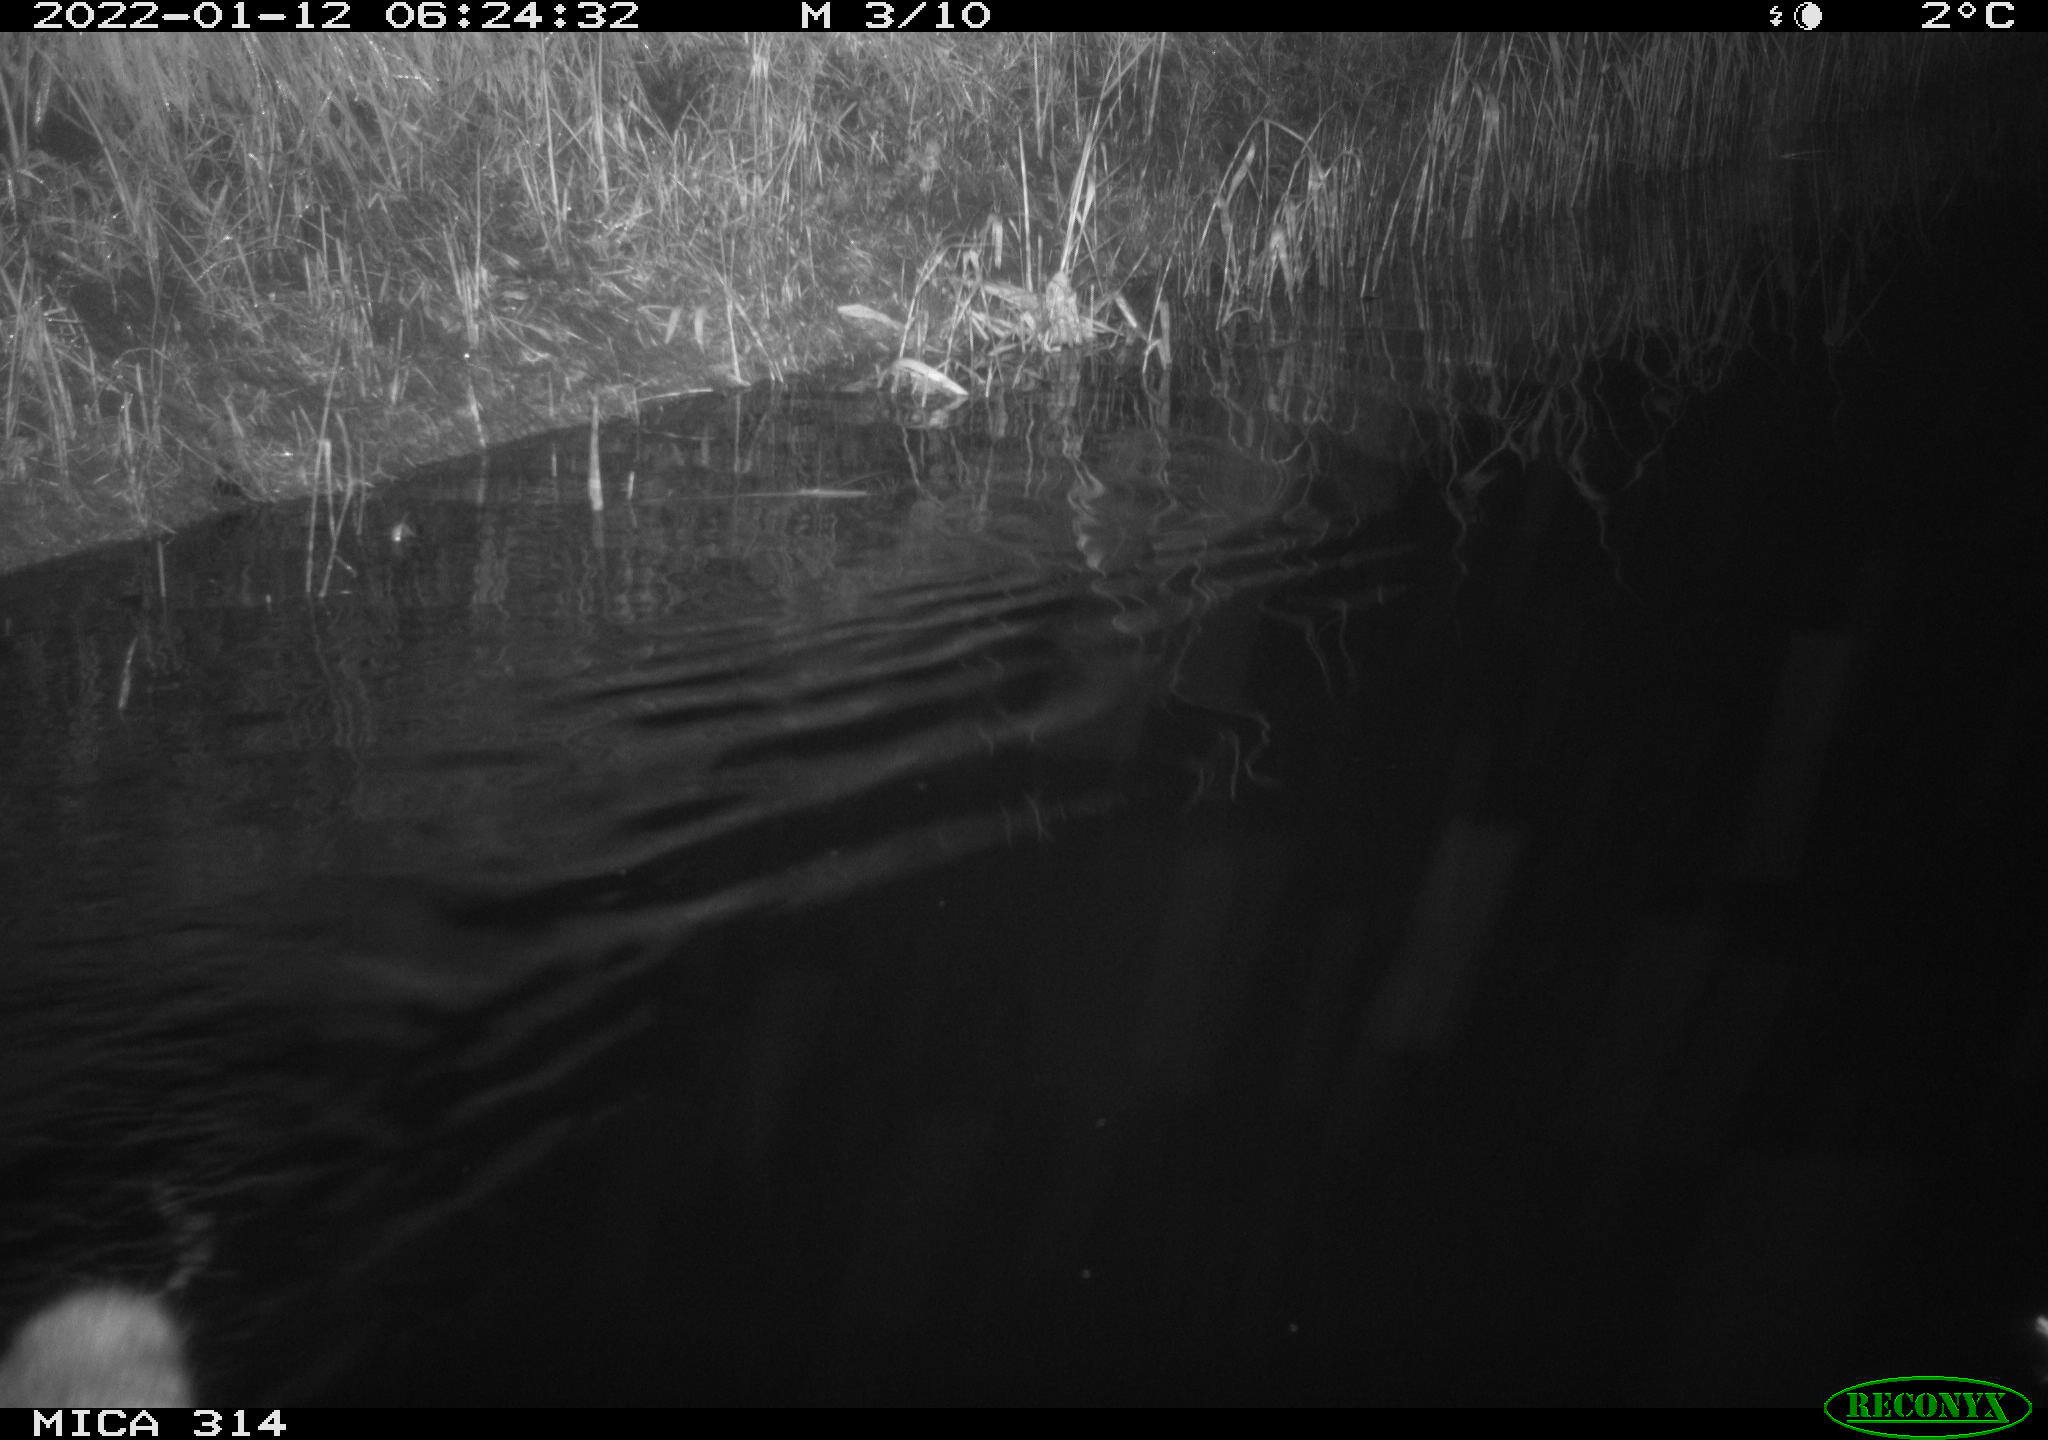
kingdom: Animalia
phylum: Chordata
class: Mammalia
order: Rodentia
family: Cricetidae
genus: Ondatra
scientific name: Ondatra zibethicus
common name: Muskrat
